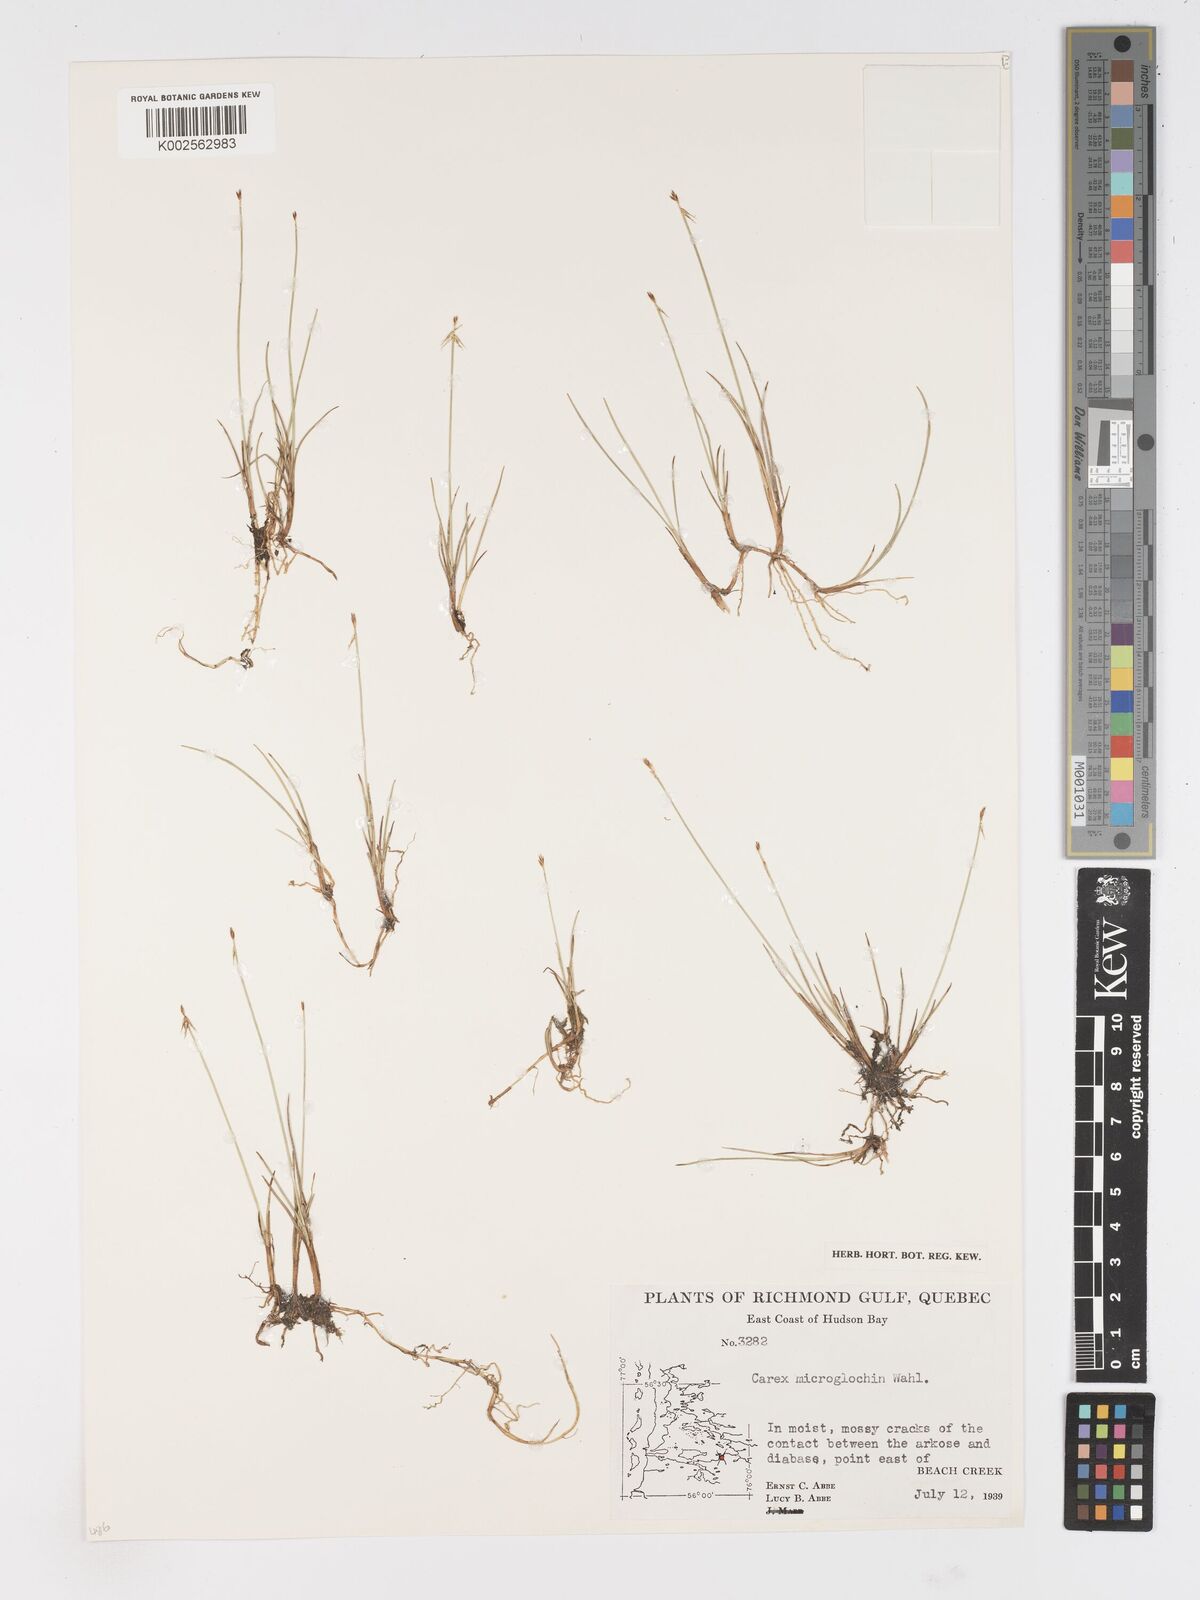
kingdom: Plantae
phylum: Tracheophyta
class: Liliopsida
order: Poales
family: Cyperaceae
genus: Carex
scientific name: Carex microglochin
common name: Bristle sedge
